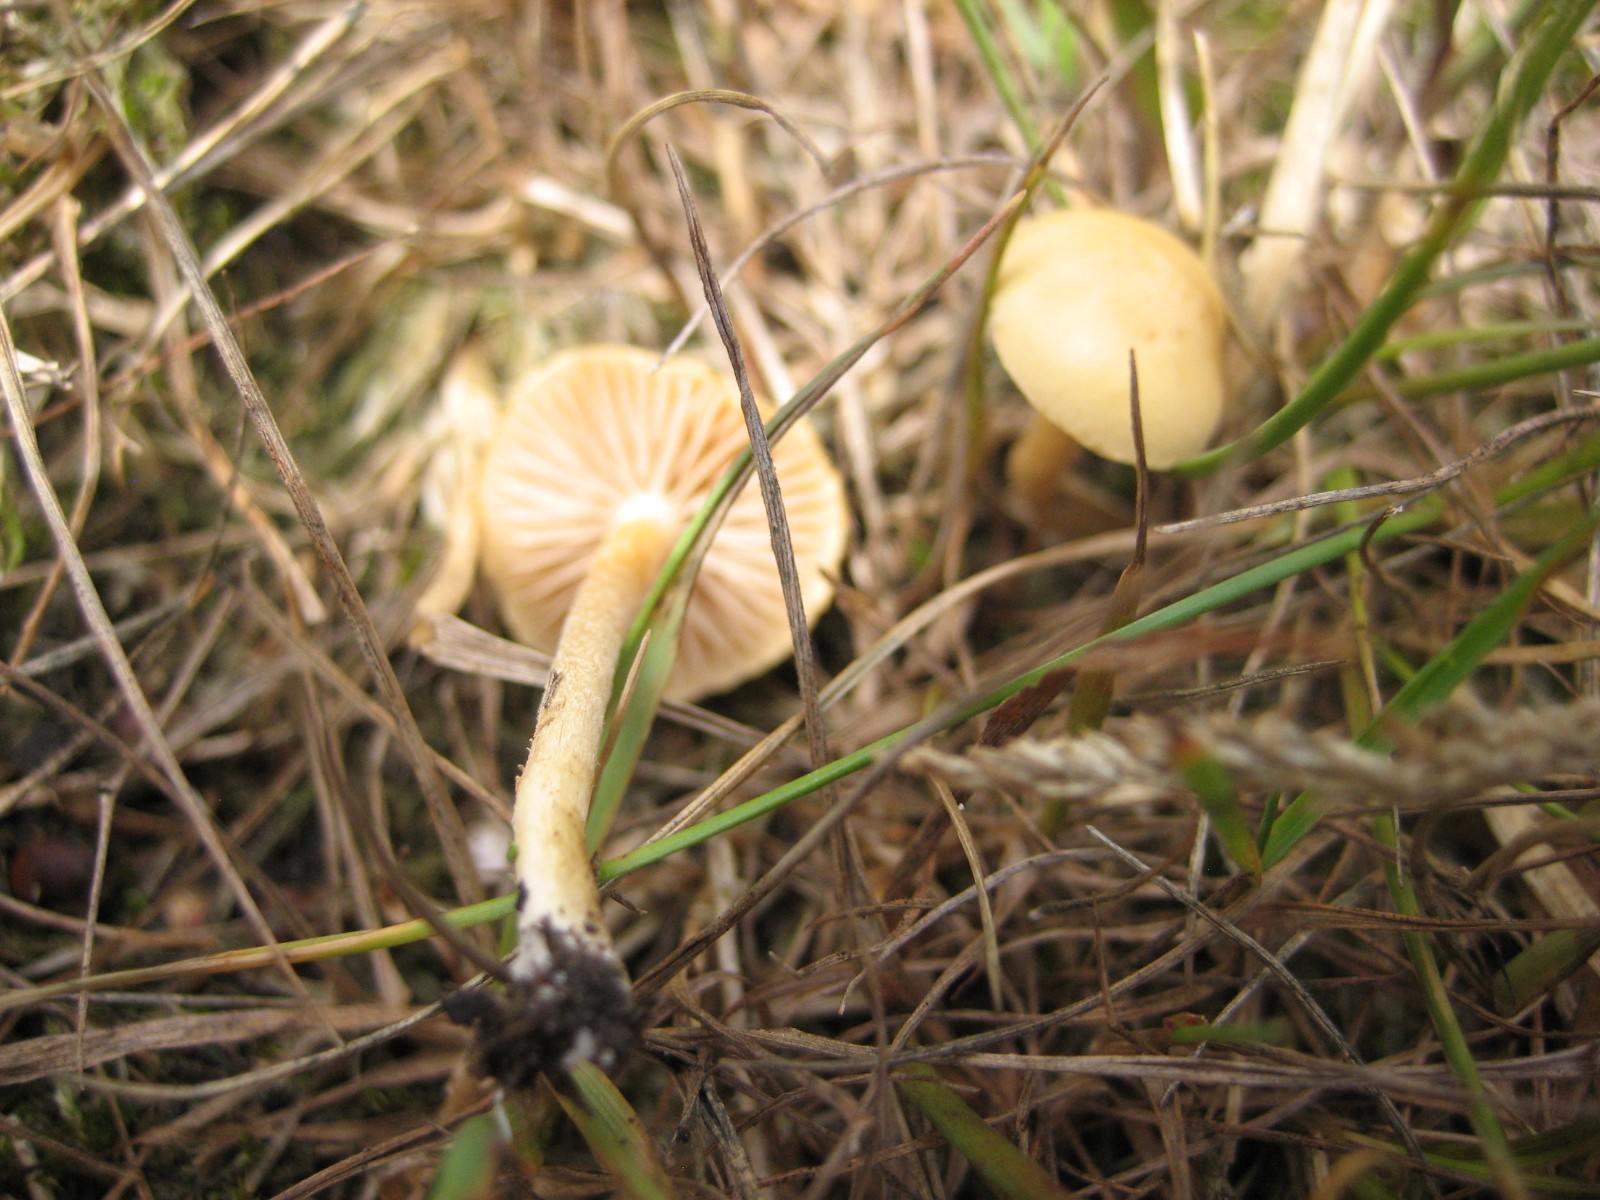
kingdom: Fungi
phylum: Basidiomycota
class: Agaricomycetes
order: Agaricales
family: Strophariaceae
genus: Agrocybe
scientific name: Agrocybe
